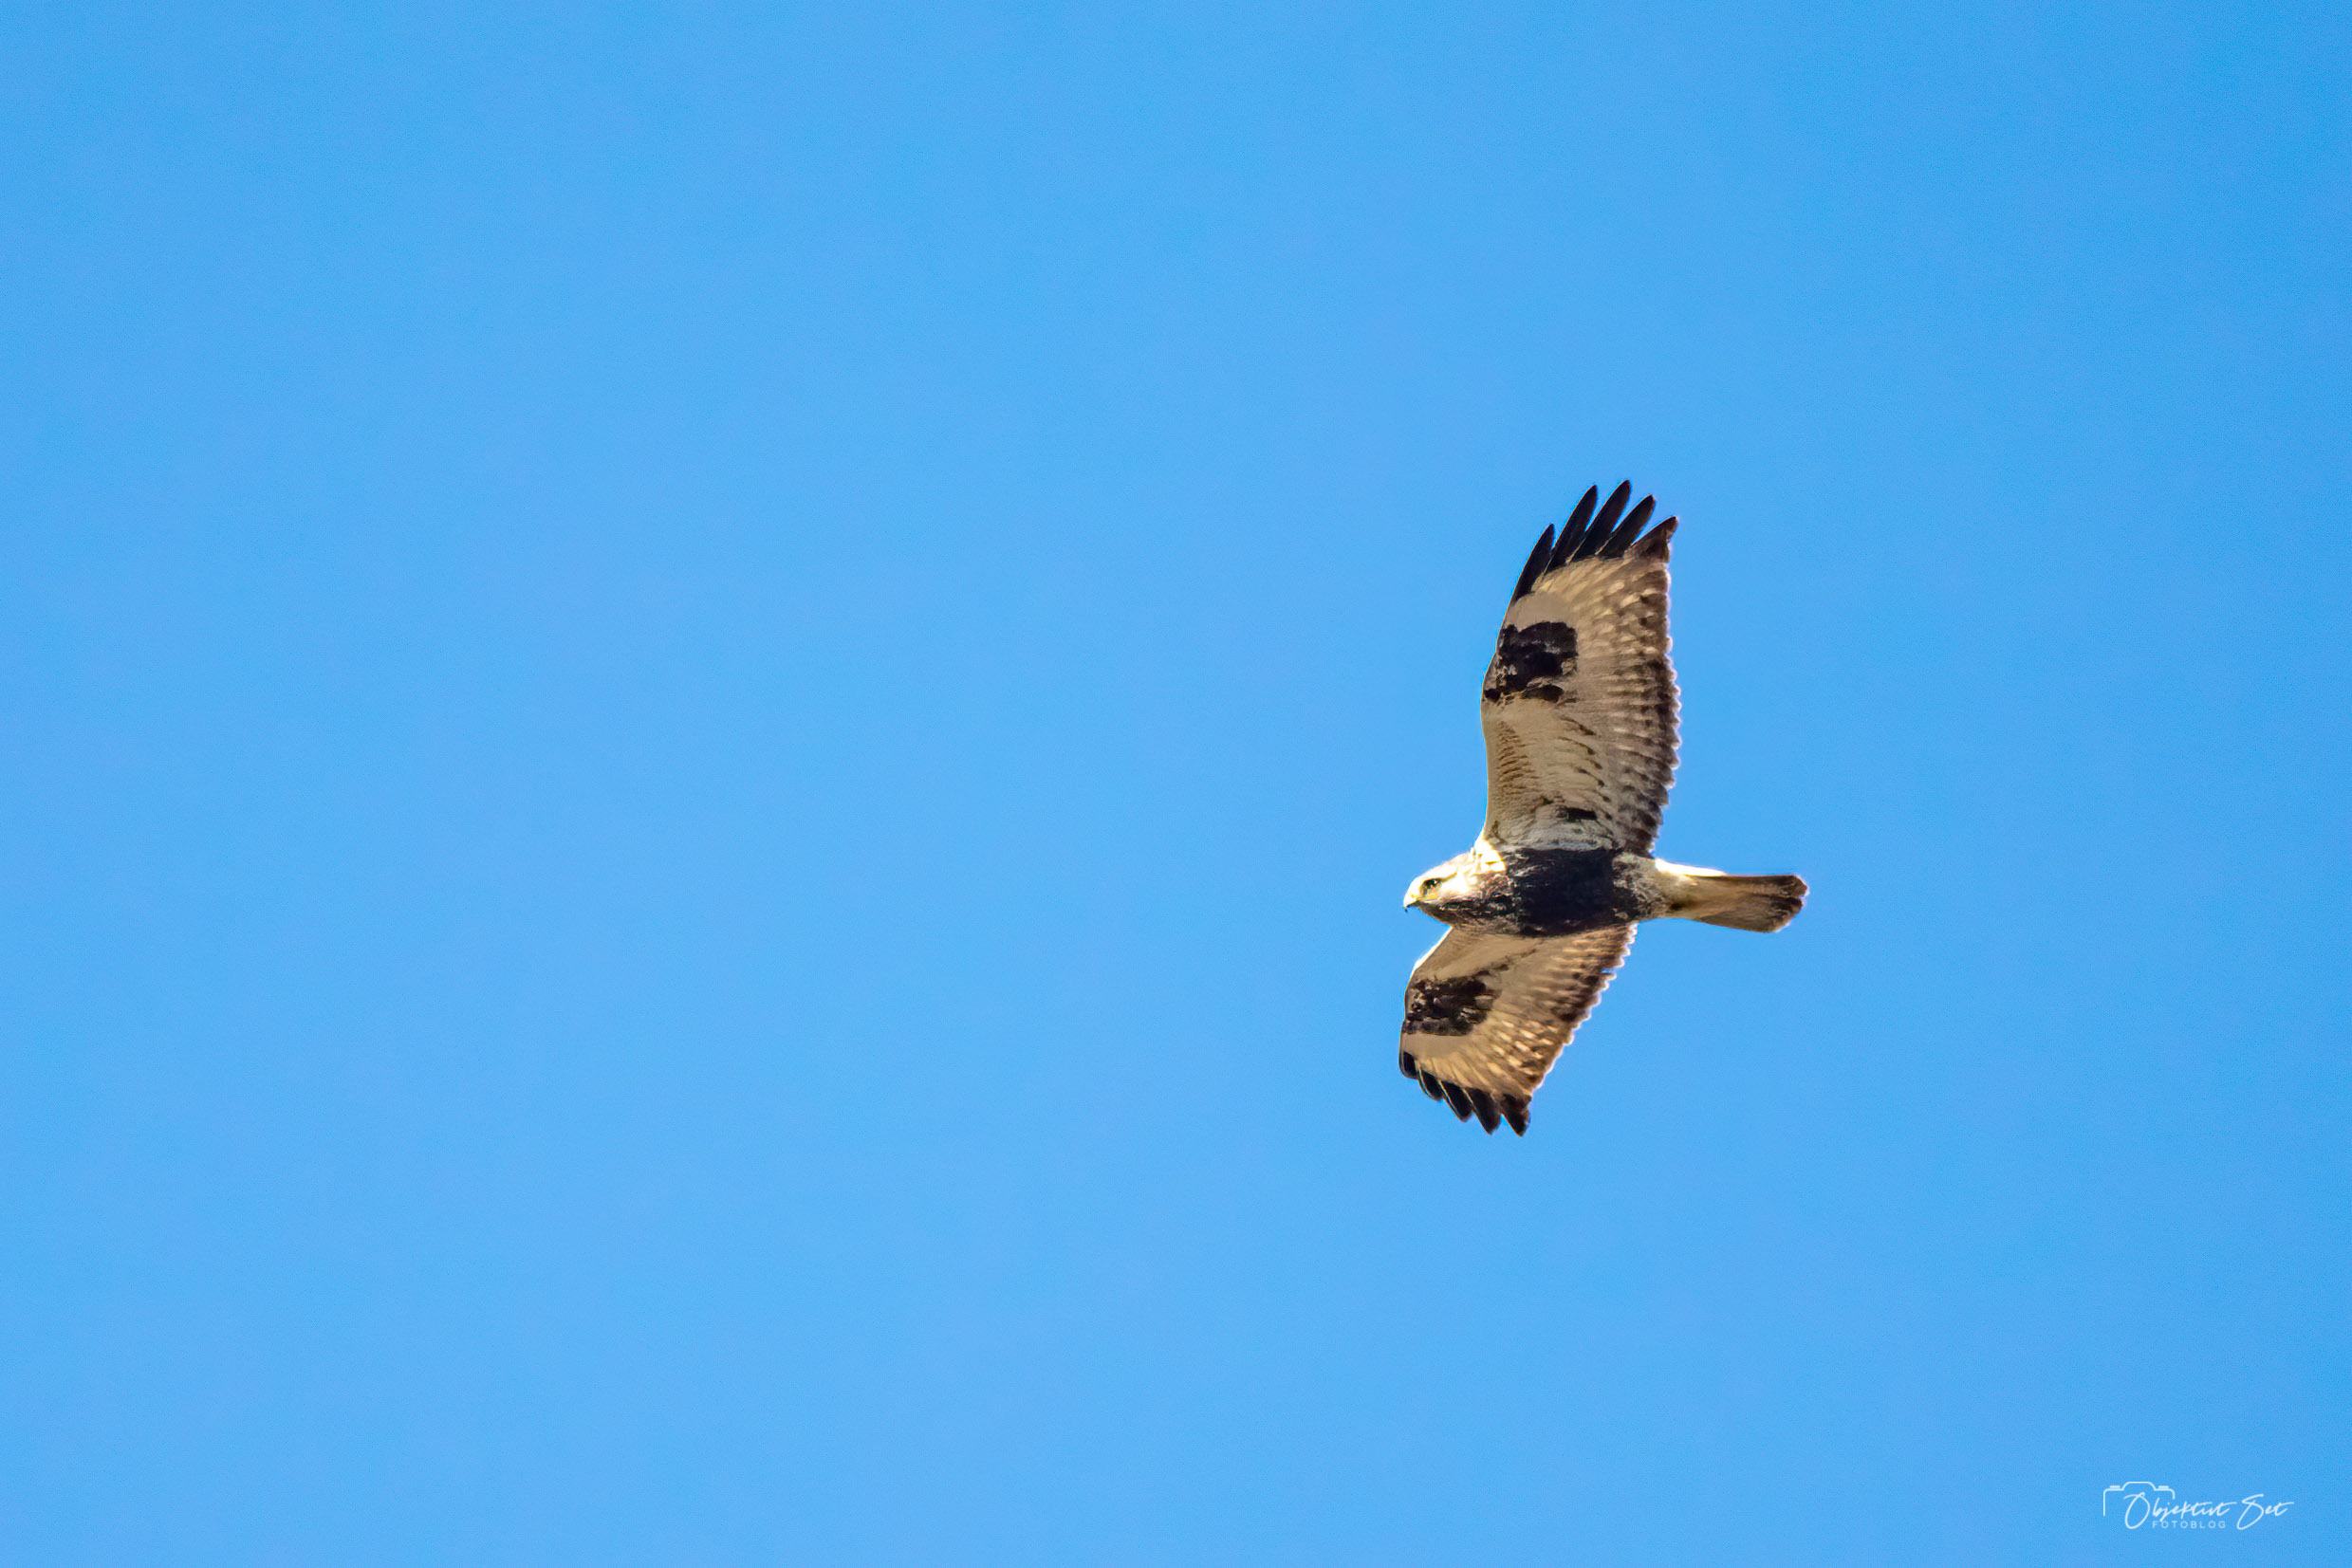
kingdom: Animalia
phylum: Chordata
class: Aves
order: Accipitriformes
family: Accipitridae
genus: Buteo
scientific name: Buteo lagopus
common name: Fjeldvåge
